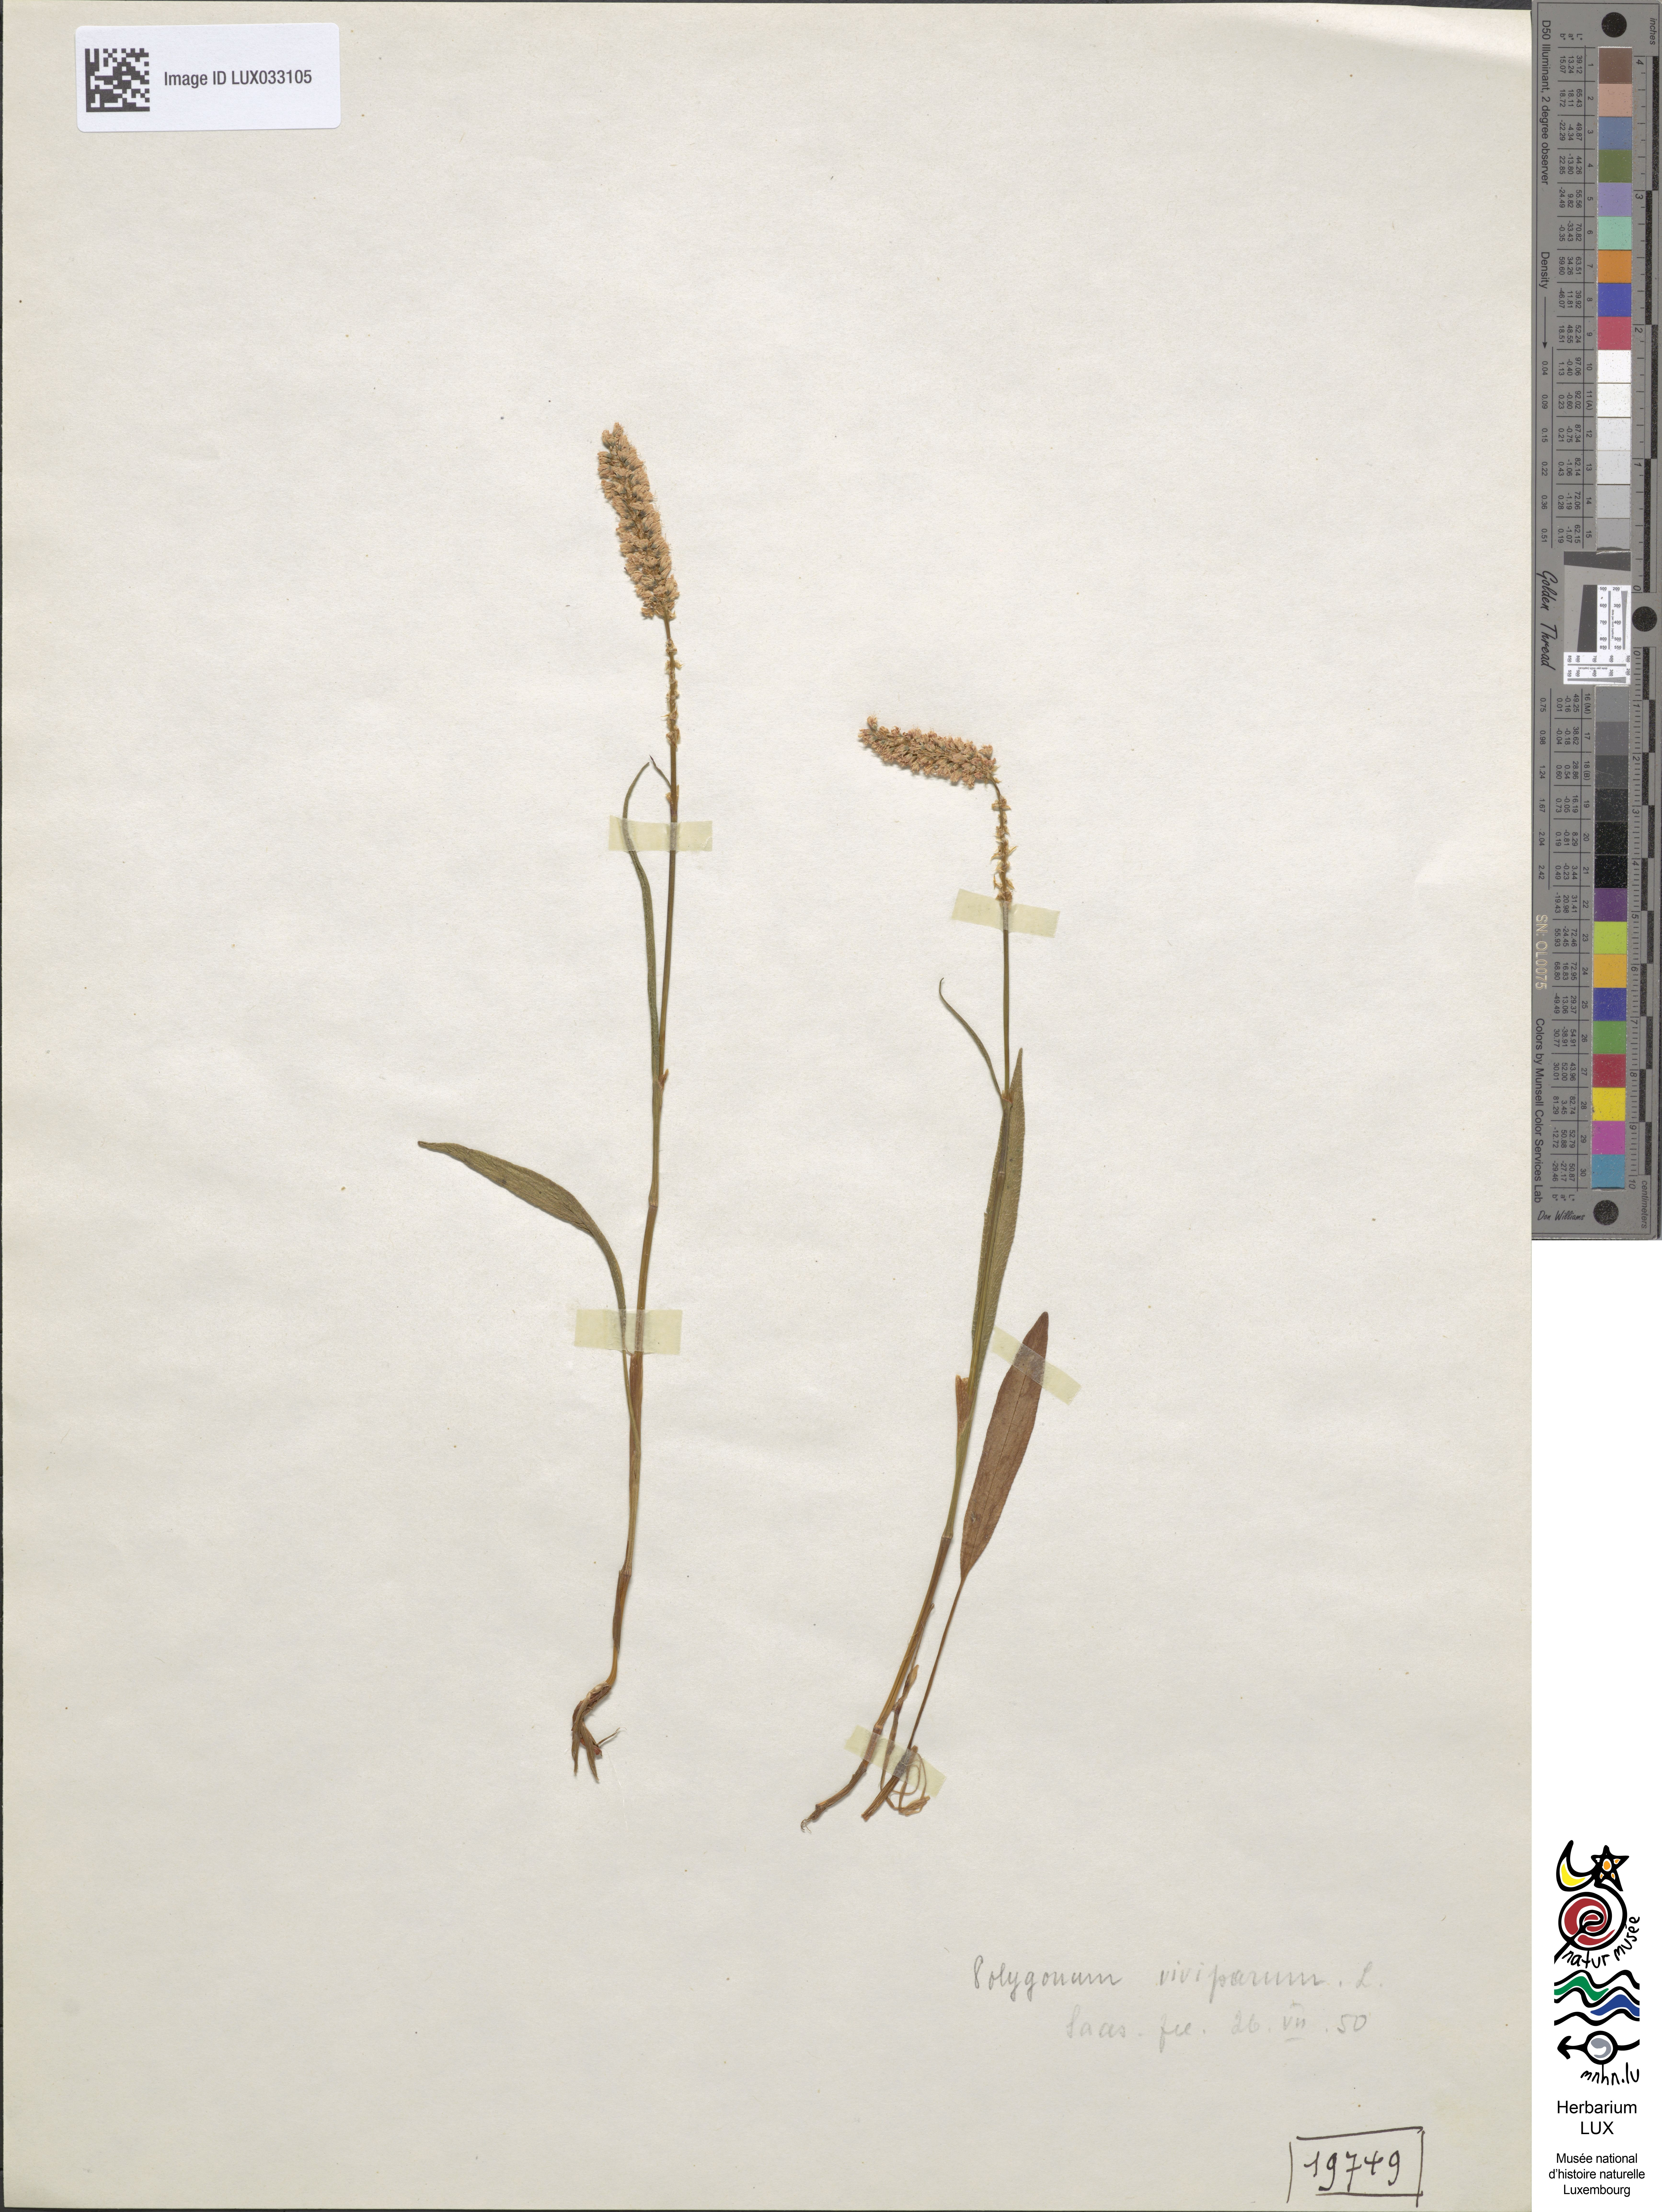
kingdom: Plantae
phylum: Tracheophyta
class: Magnoliopsida
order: Caryophyllales
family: Polygonaceae
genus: Bistorta
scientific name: Bistorta vivipara
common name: Alpine bistort
